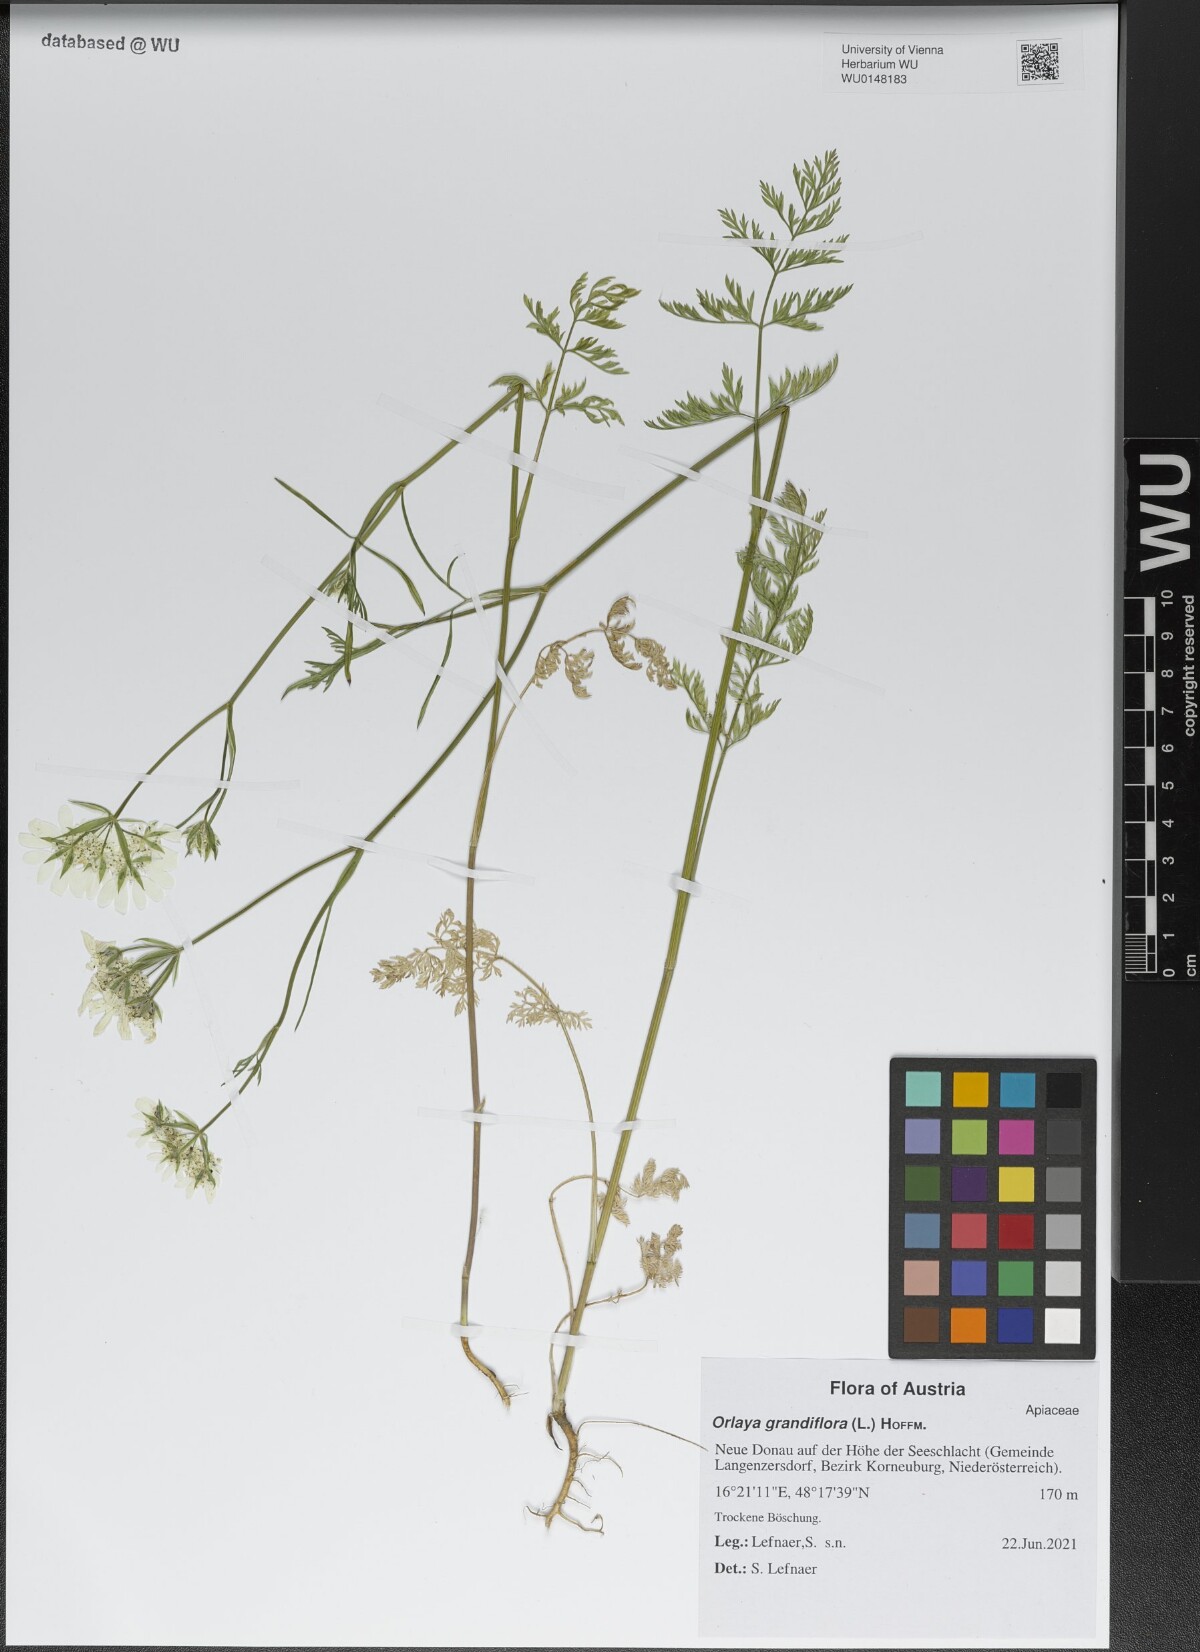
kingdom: Plantae
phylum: Tracheophyta
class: Magnoliopsida
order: Apiales
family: Apiaceae
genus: Orlaya
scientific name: Orlaya grandiflora
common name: White lace flower
